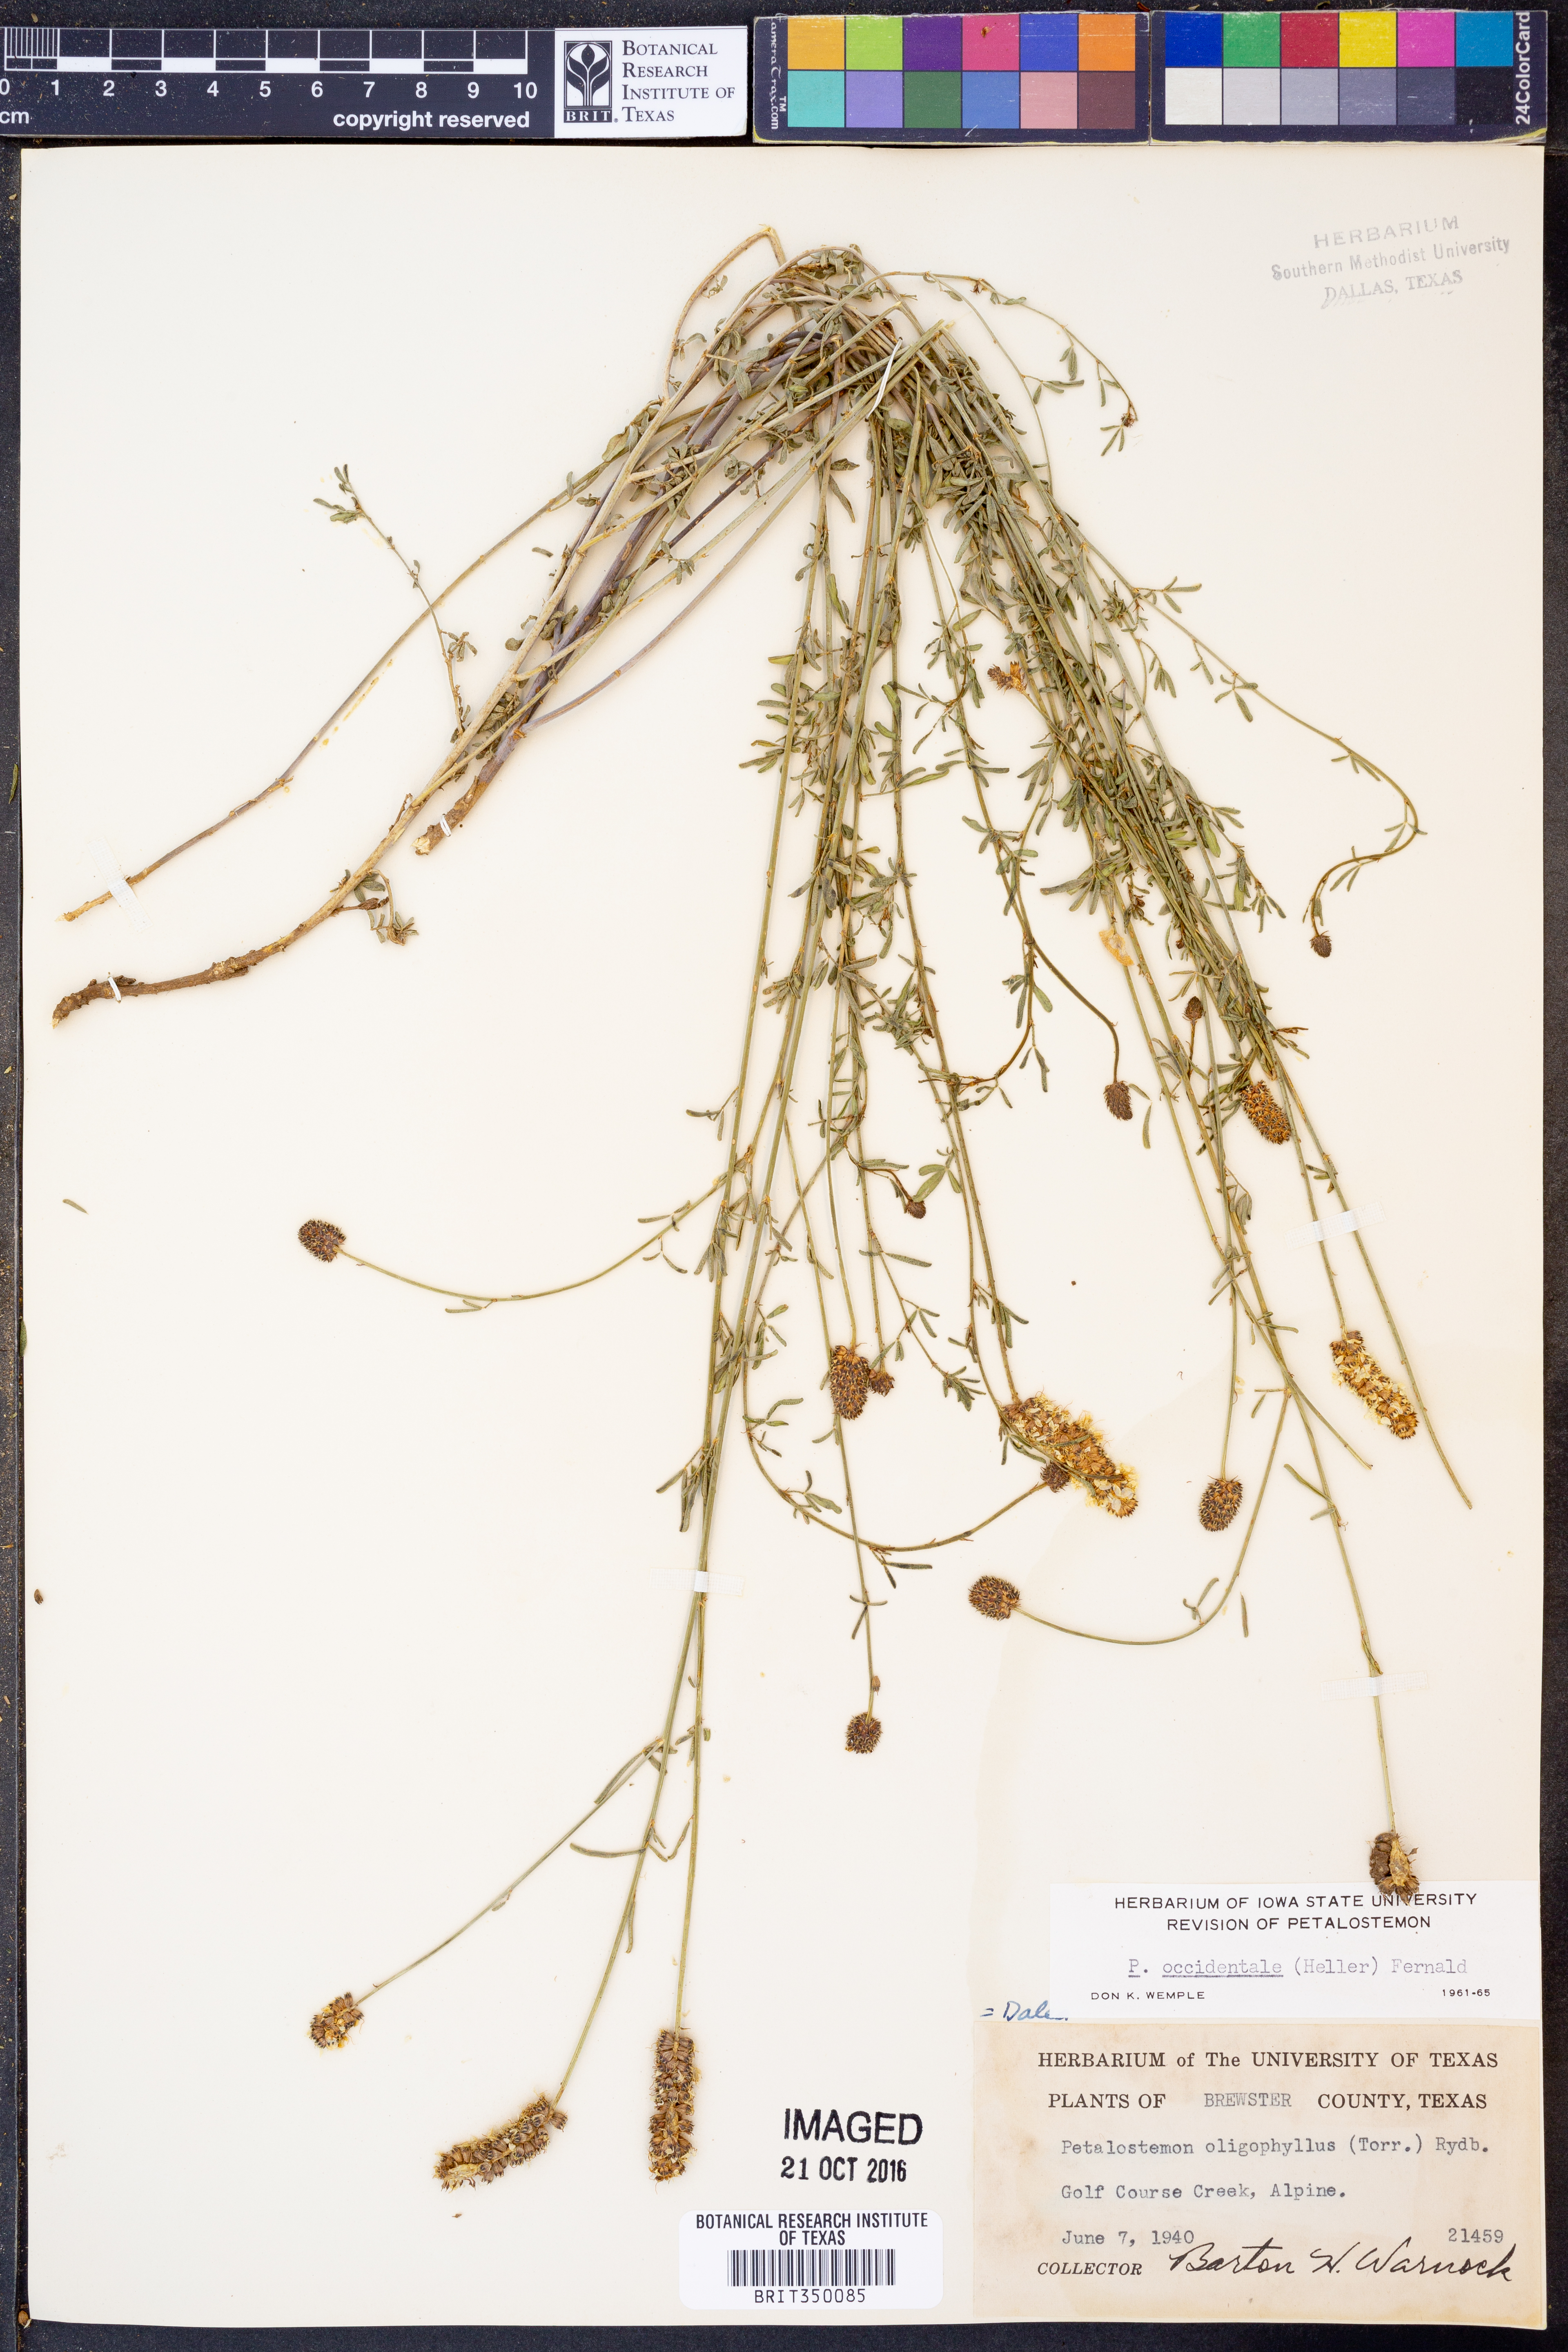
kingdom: Plantae
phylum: Tracheophyta
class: Magnoliopsida
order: Fabales
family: Fabaceae
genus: Dalea
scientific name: Dalea candida
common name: White prairie-clover
